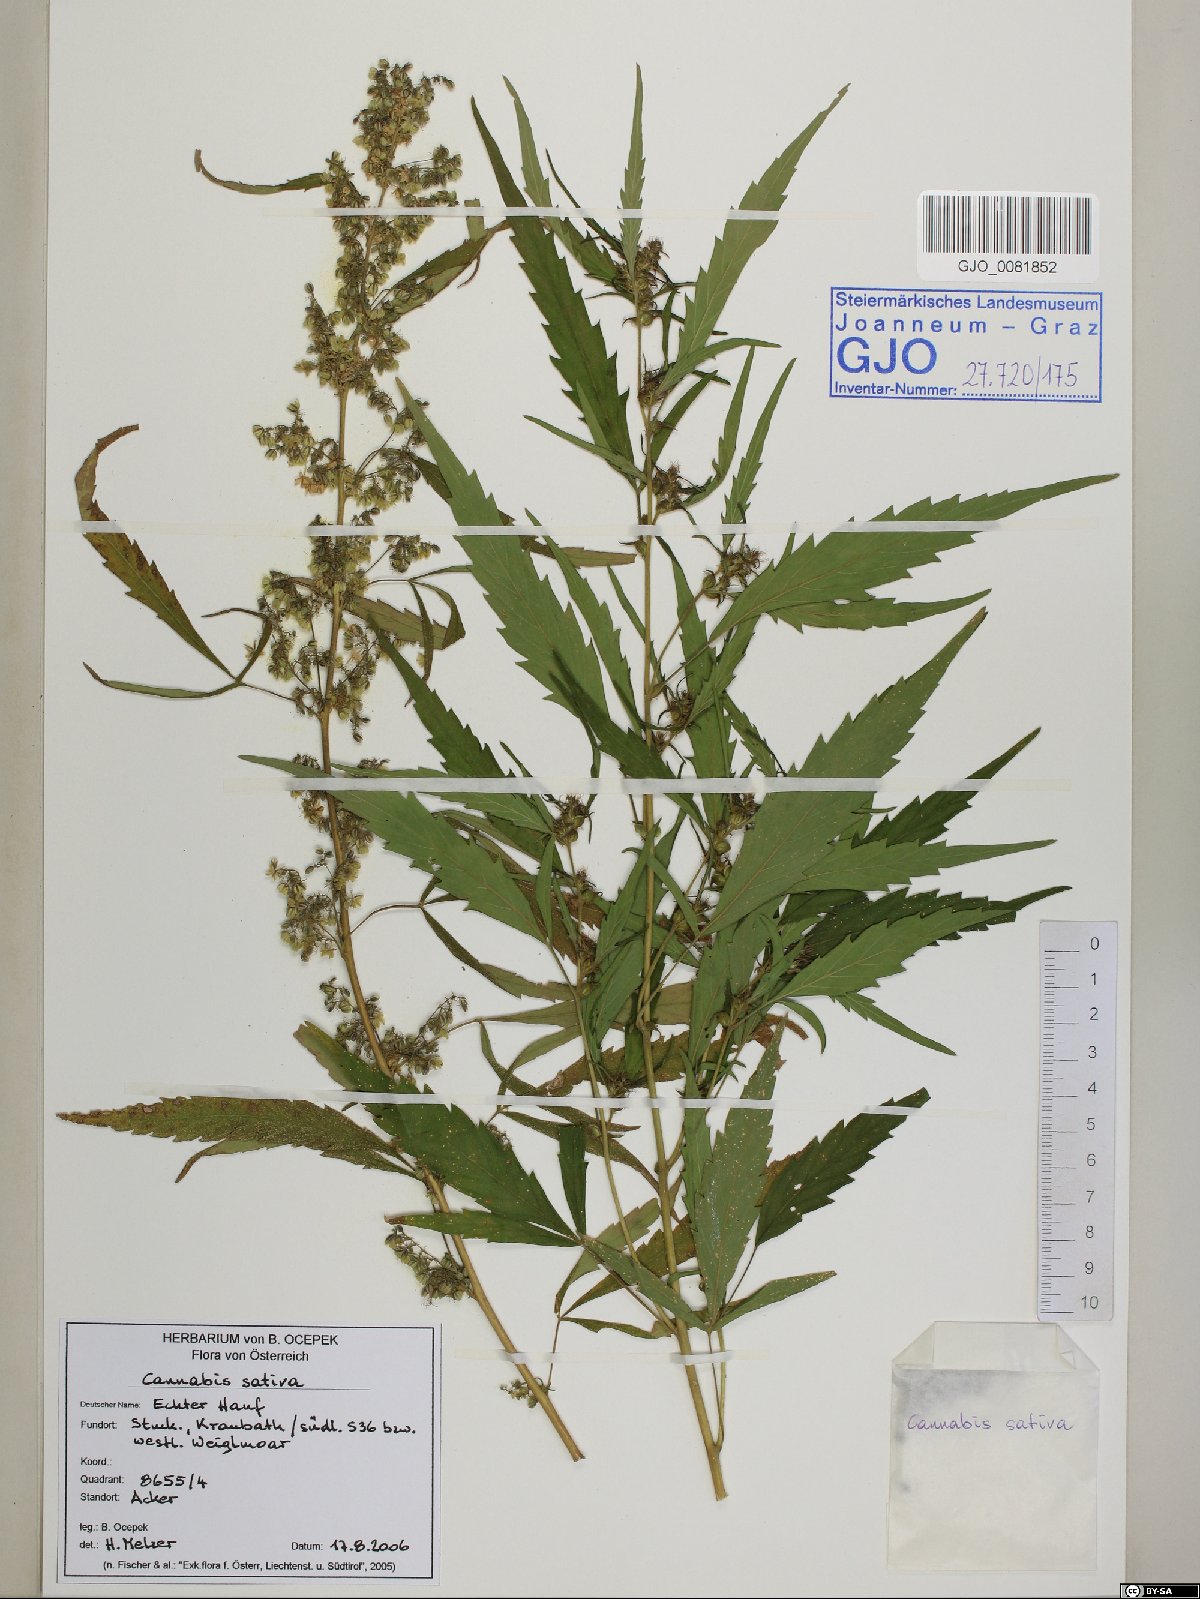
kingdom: Plantae
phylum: Tracheophyta
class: Magnoliopsida
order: Rosales
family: Cannabaceae
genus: Cannabis
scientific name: Cannabis sativa
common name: Hemp
